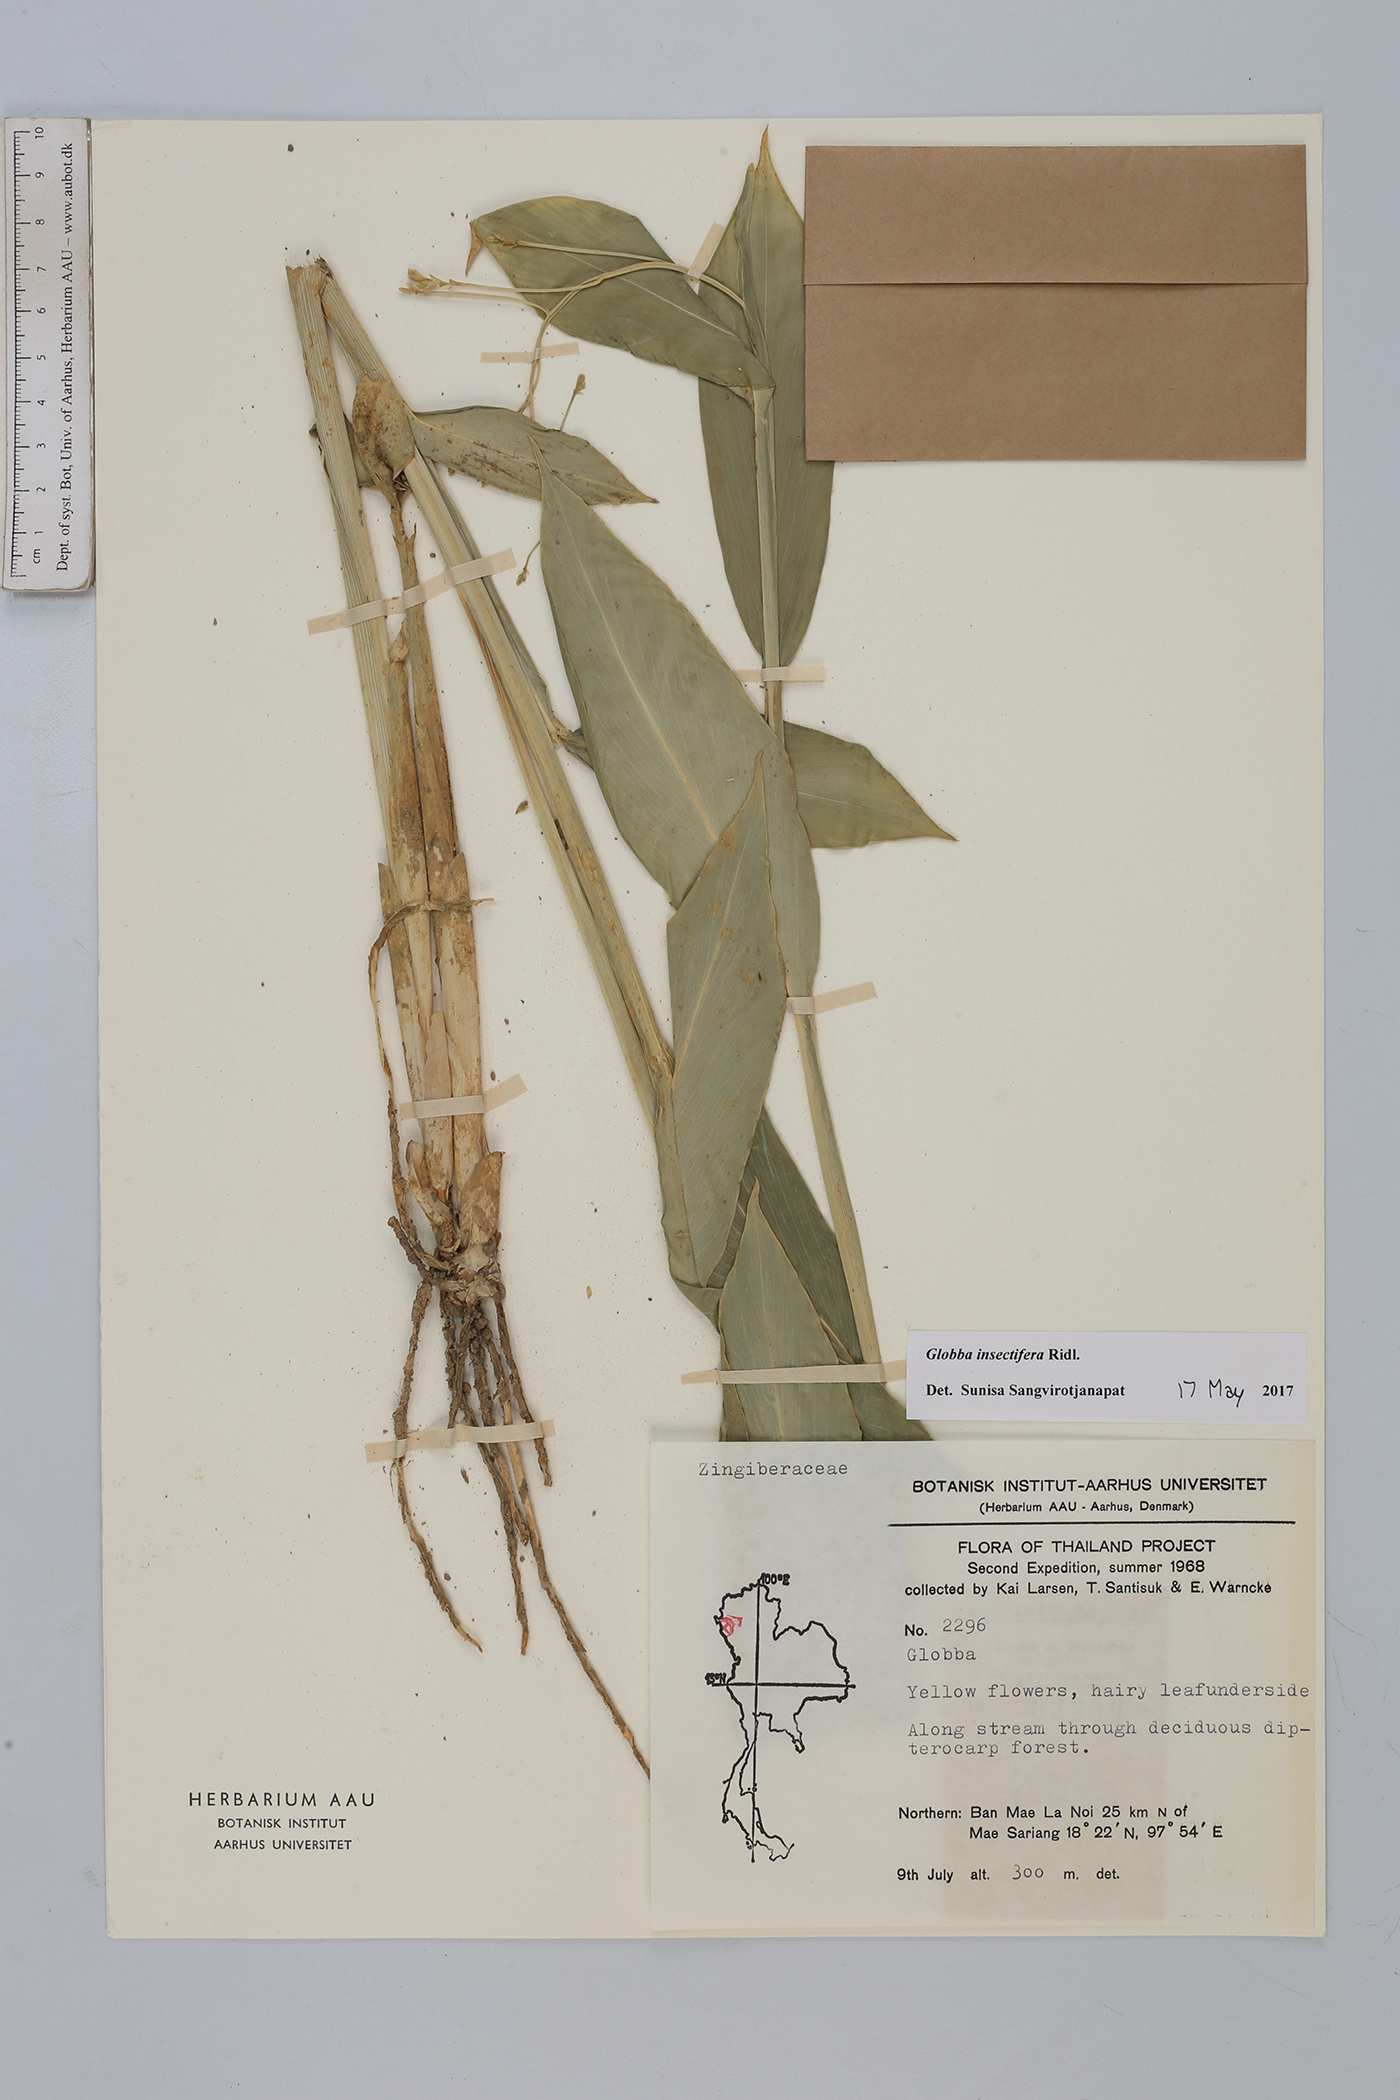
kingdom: Plantae
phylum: Tracheophyta
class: Liliopsida
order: Zingiberales
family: Zingiberaceae
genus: Globba
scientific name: Globba insectifera
